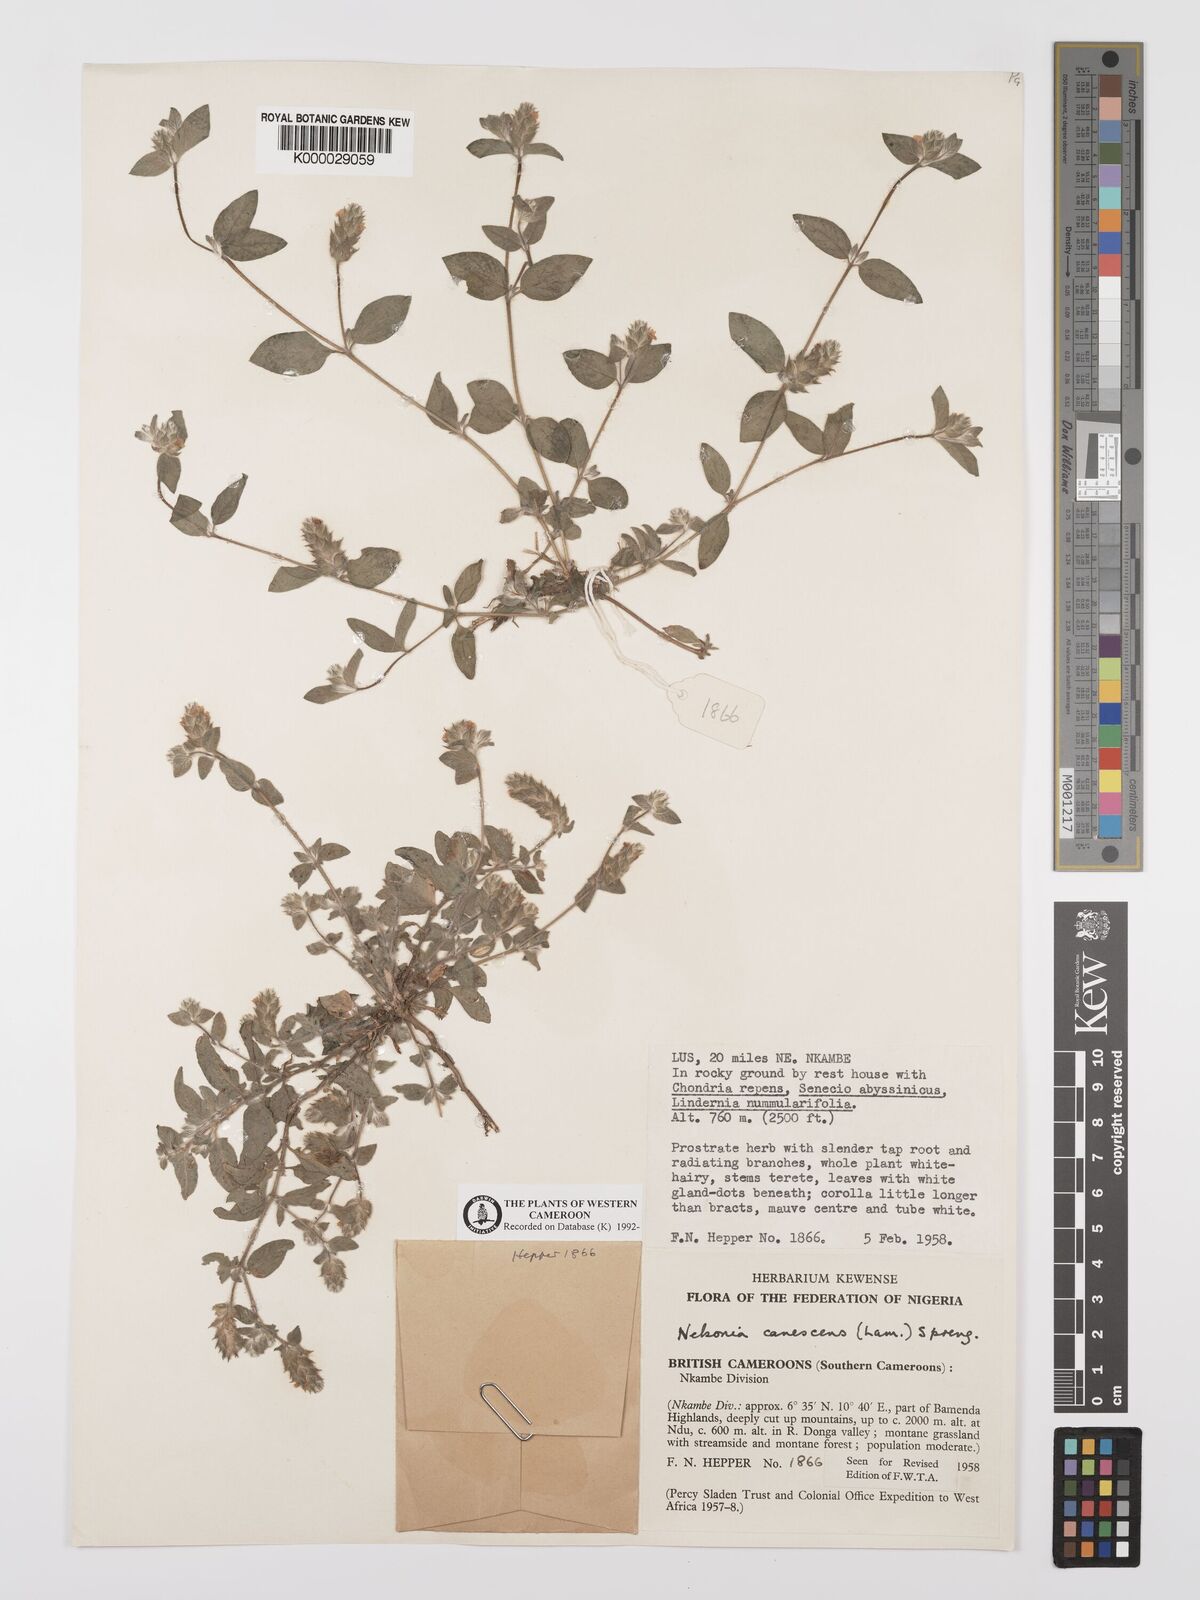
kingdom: Plantae
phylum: Tracheophyta
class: Magnoliopsida
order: Lamiales
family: Acanthaceae
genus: Nelsonia
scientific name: Nelsonia canescens
